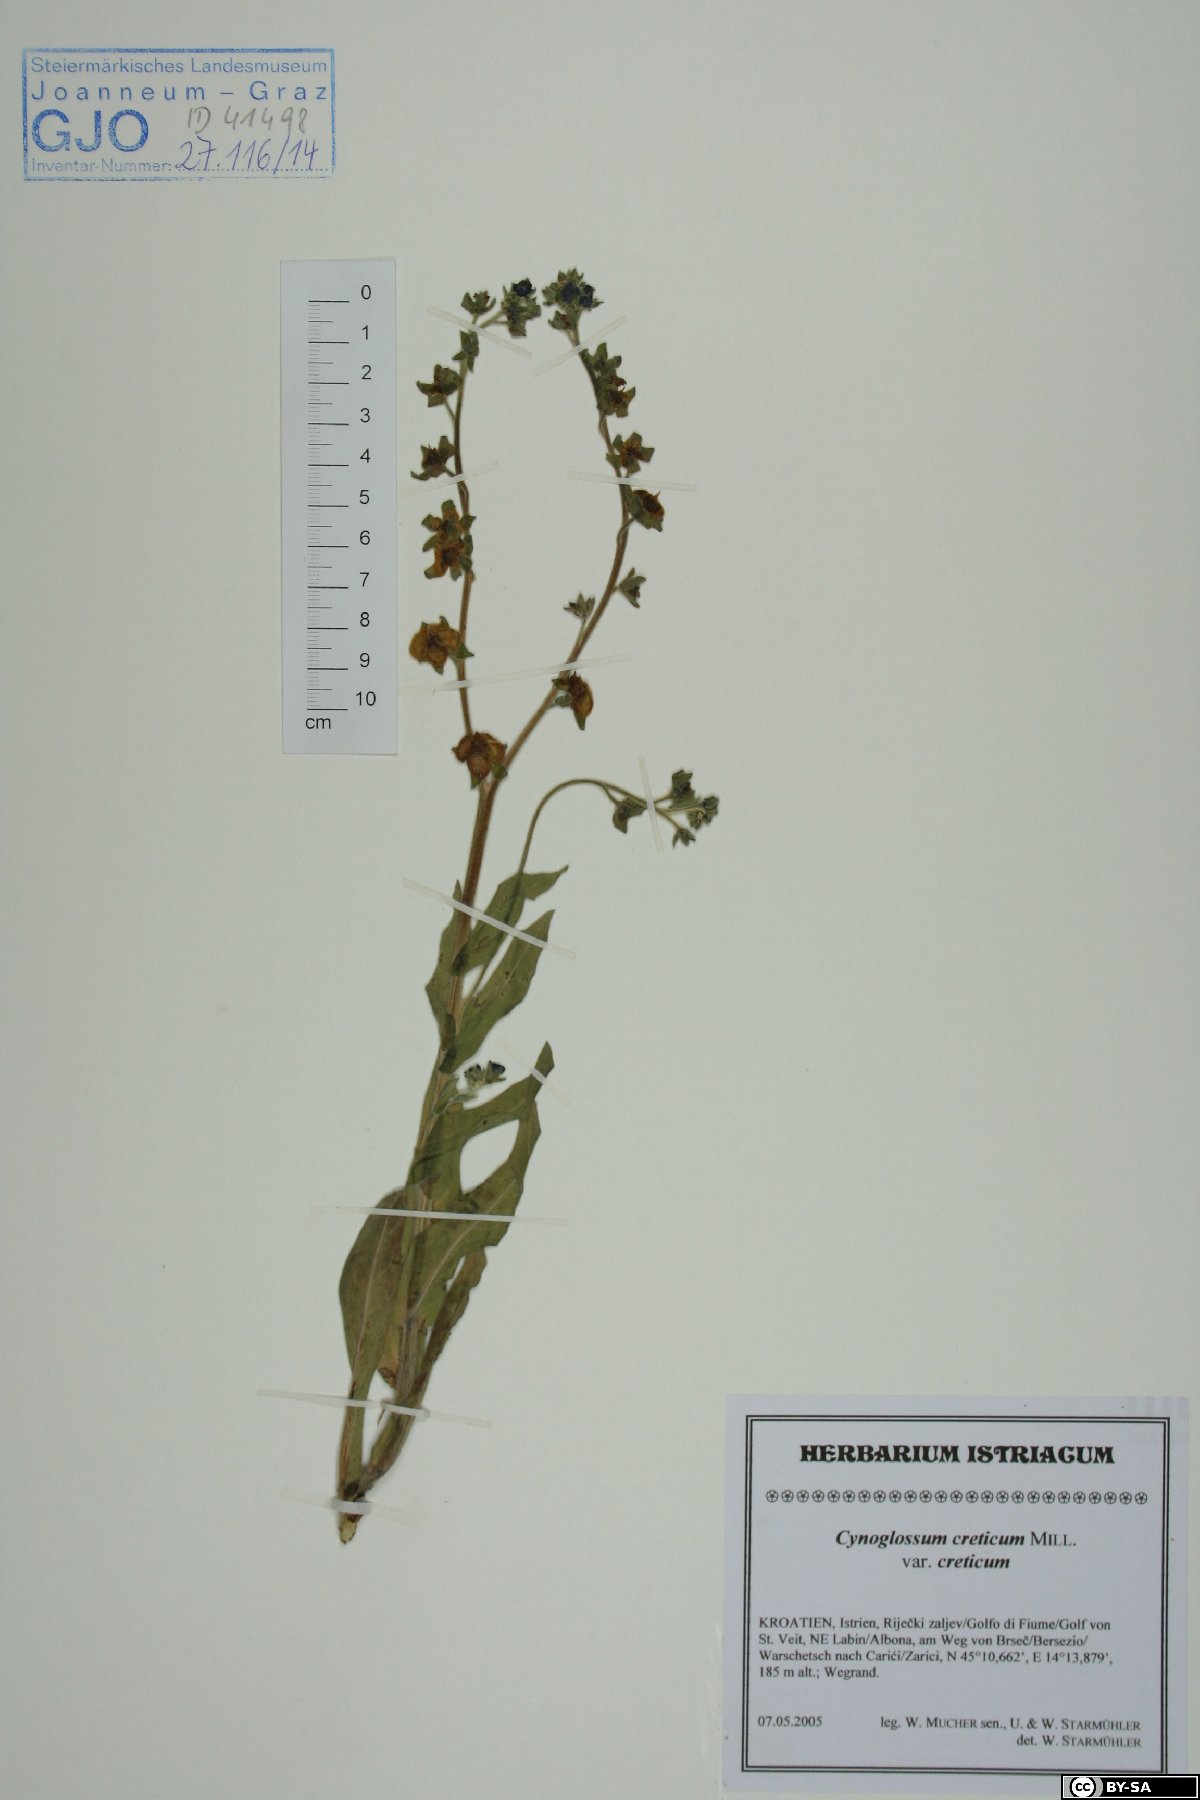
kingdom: Plantae
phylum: Tracheophyta
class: Magnoliopsida
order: Boraginales
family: Boraginaceae
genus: Cynoglossum
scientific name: Cynoglossum creticum
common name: Blue hound's tongue
